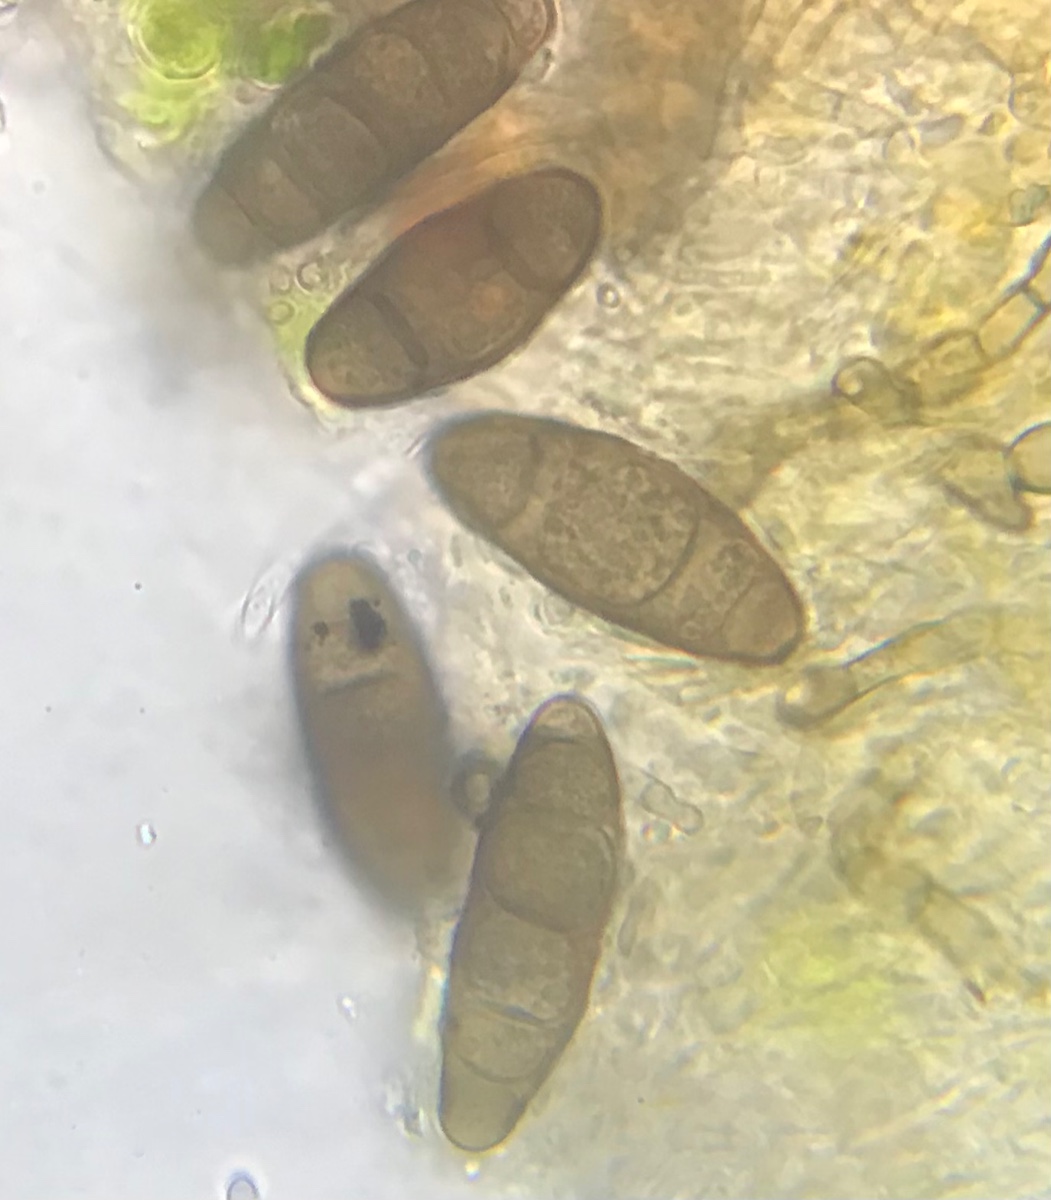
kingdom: Fungi
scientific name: Fungi
